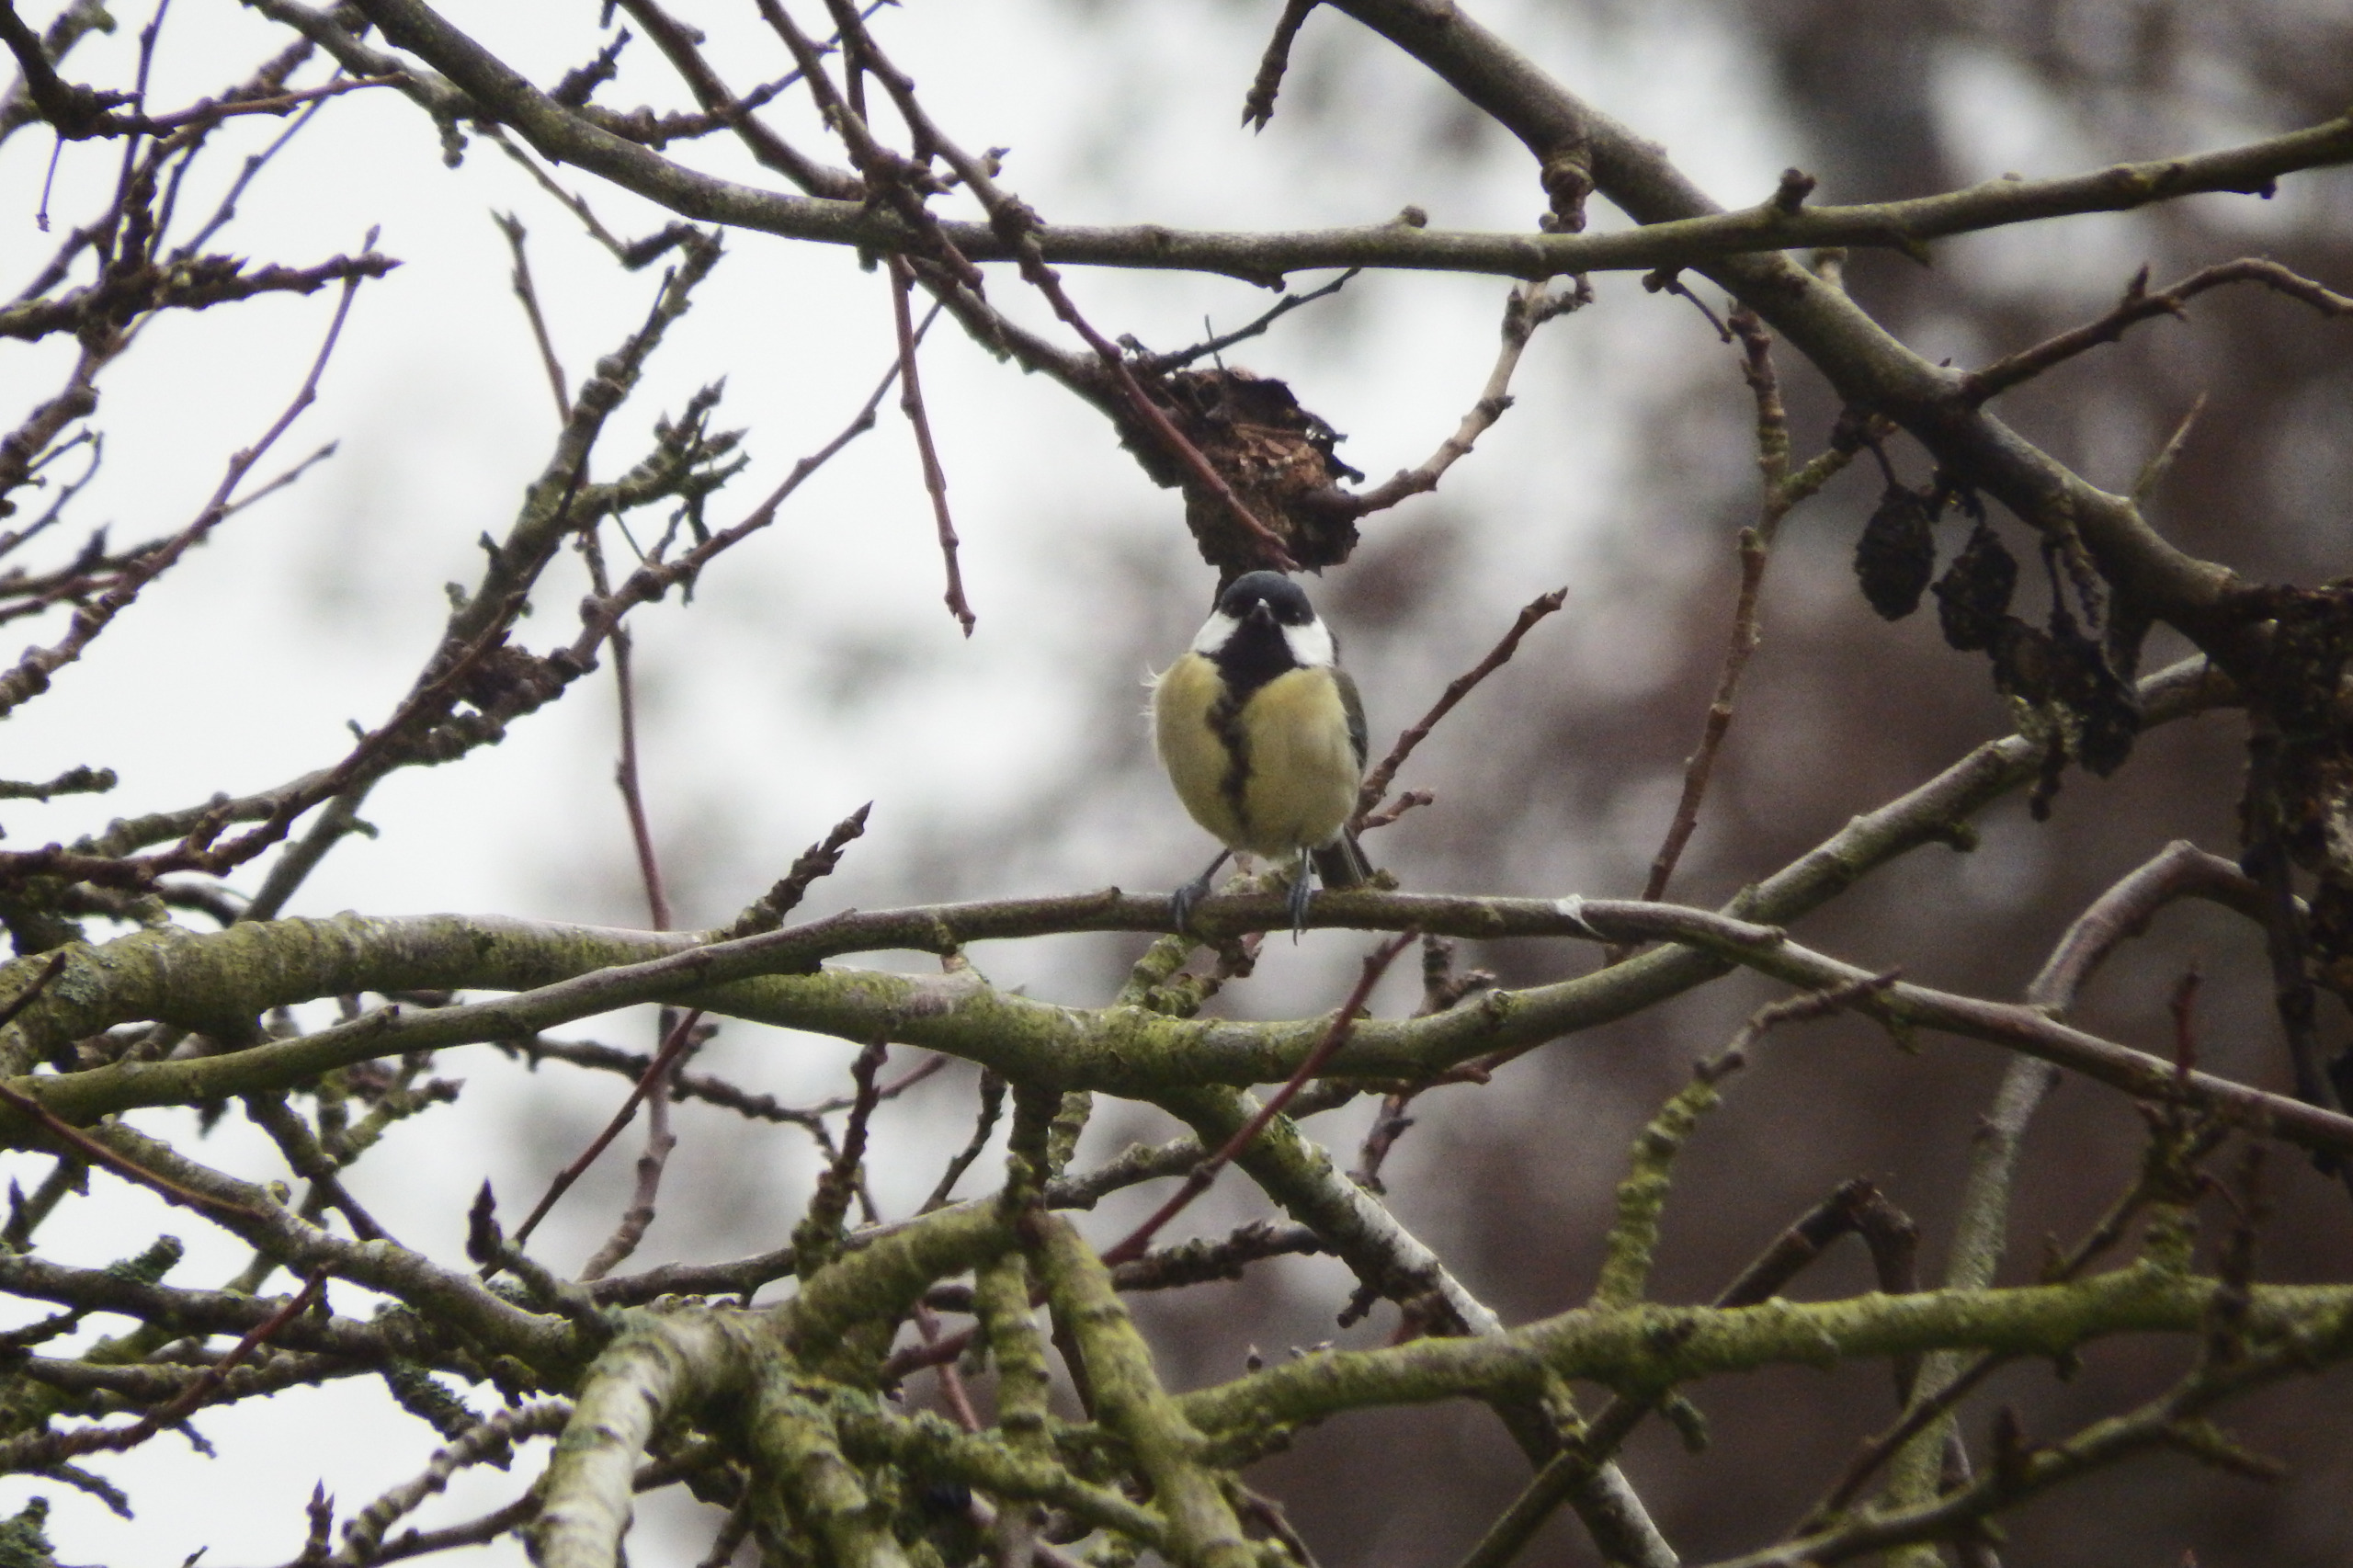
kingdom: Animalia
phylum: Chordata
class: Aves
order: Passeriformes
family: Paridae
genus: Parus
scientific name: Parus major
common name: Musvit
